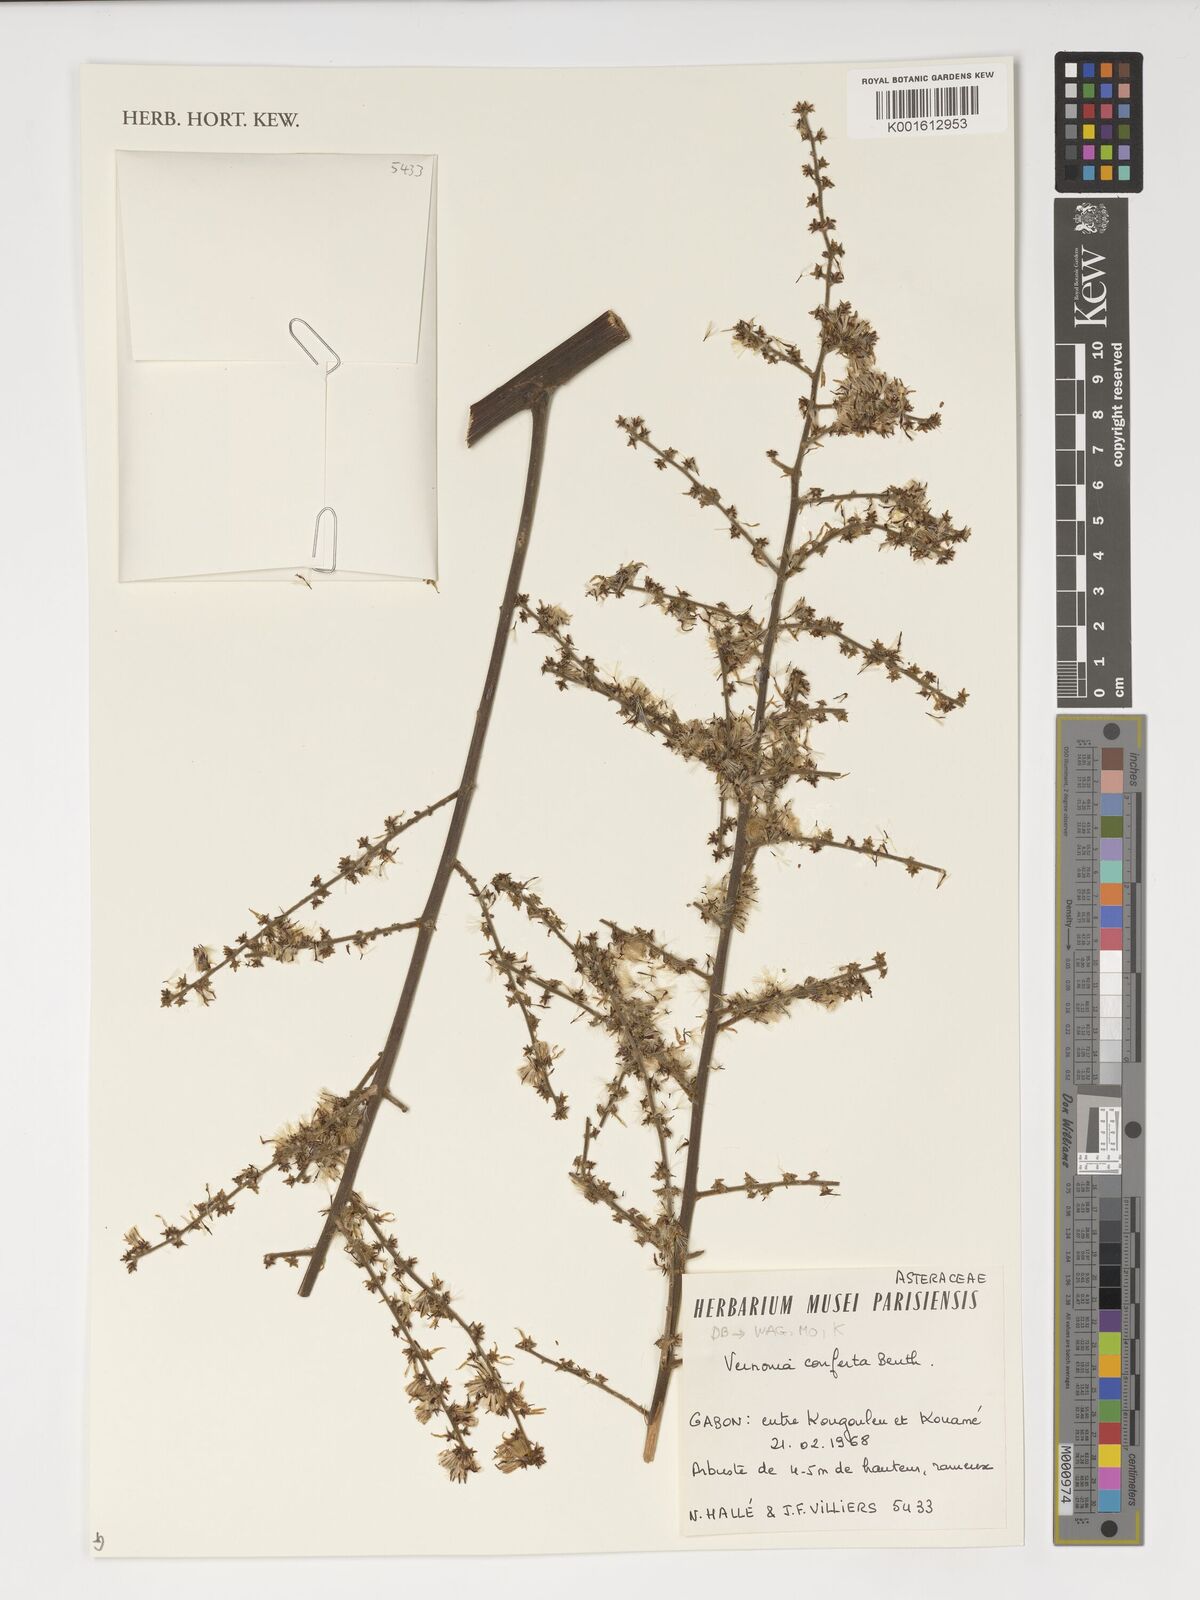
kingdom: Plantae
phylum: Tracheophyta
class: Magnoliopsida
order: Asterales
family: Asteraceae
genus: Monosis
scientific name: Monosis conferta
